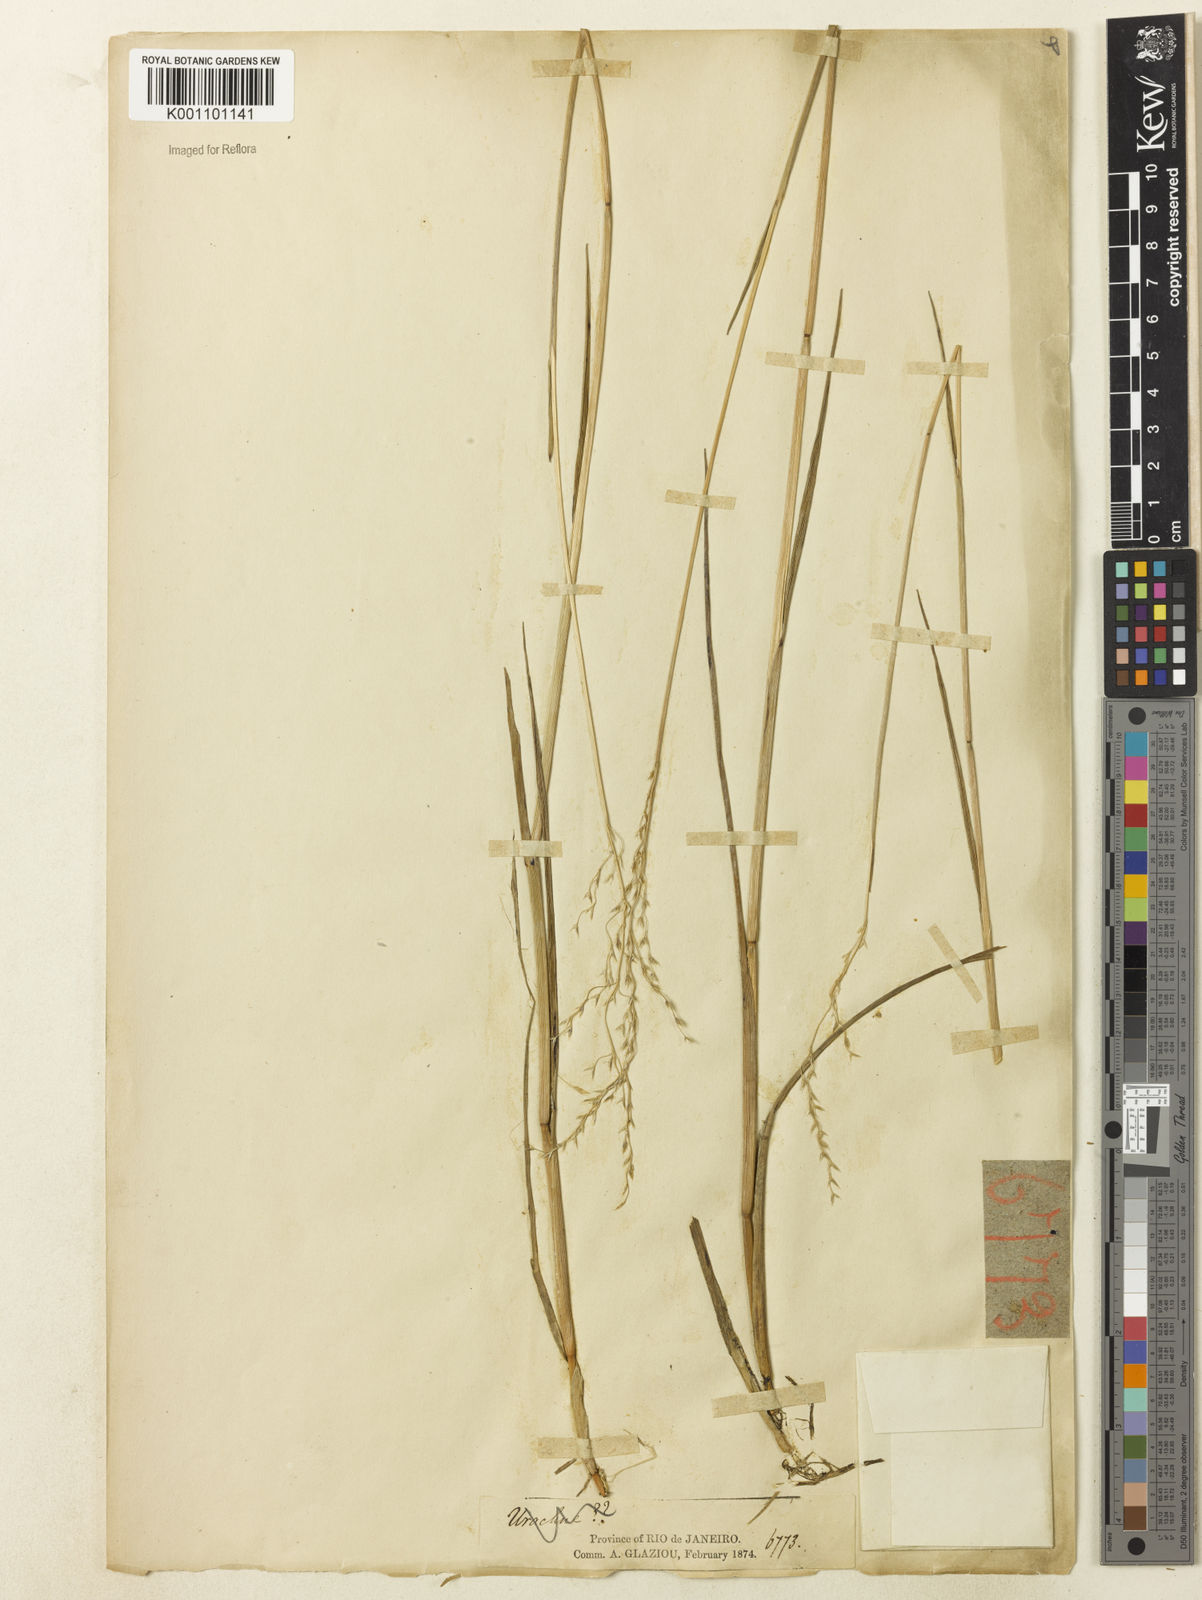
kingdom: Plantae
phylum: Tracheophyta
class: Liliopsida
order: Poales
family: Poaceae
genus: Agrostis
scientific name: Agrostis
